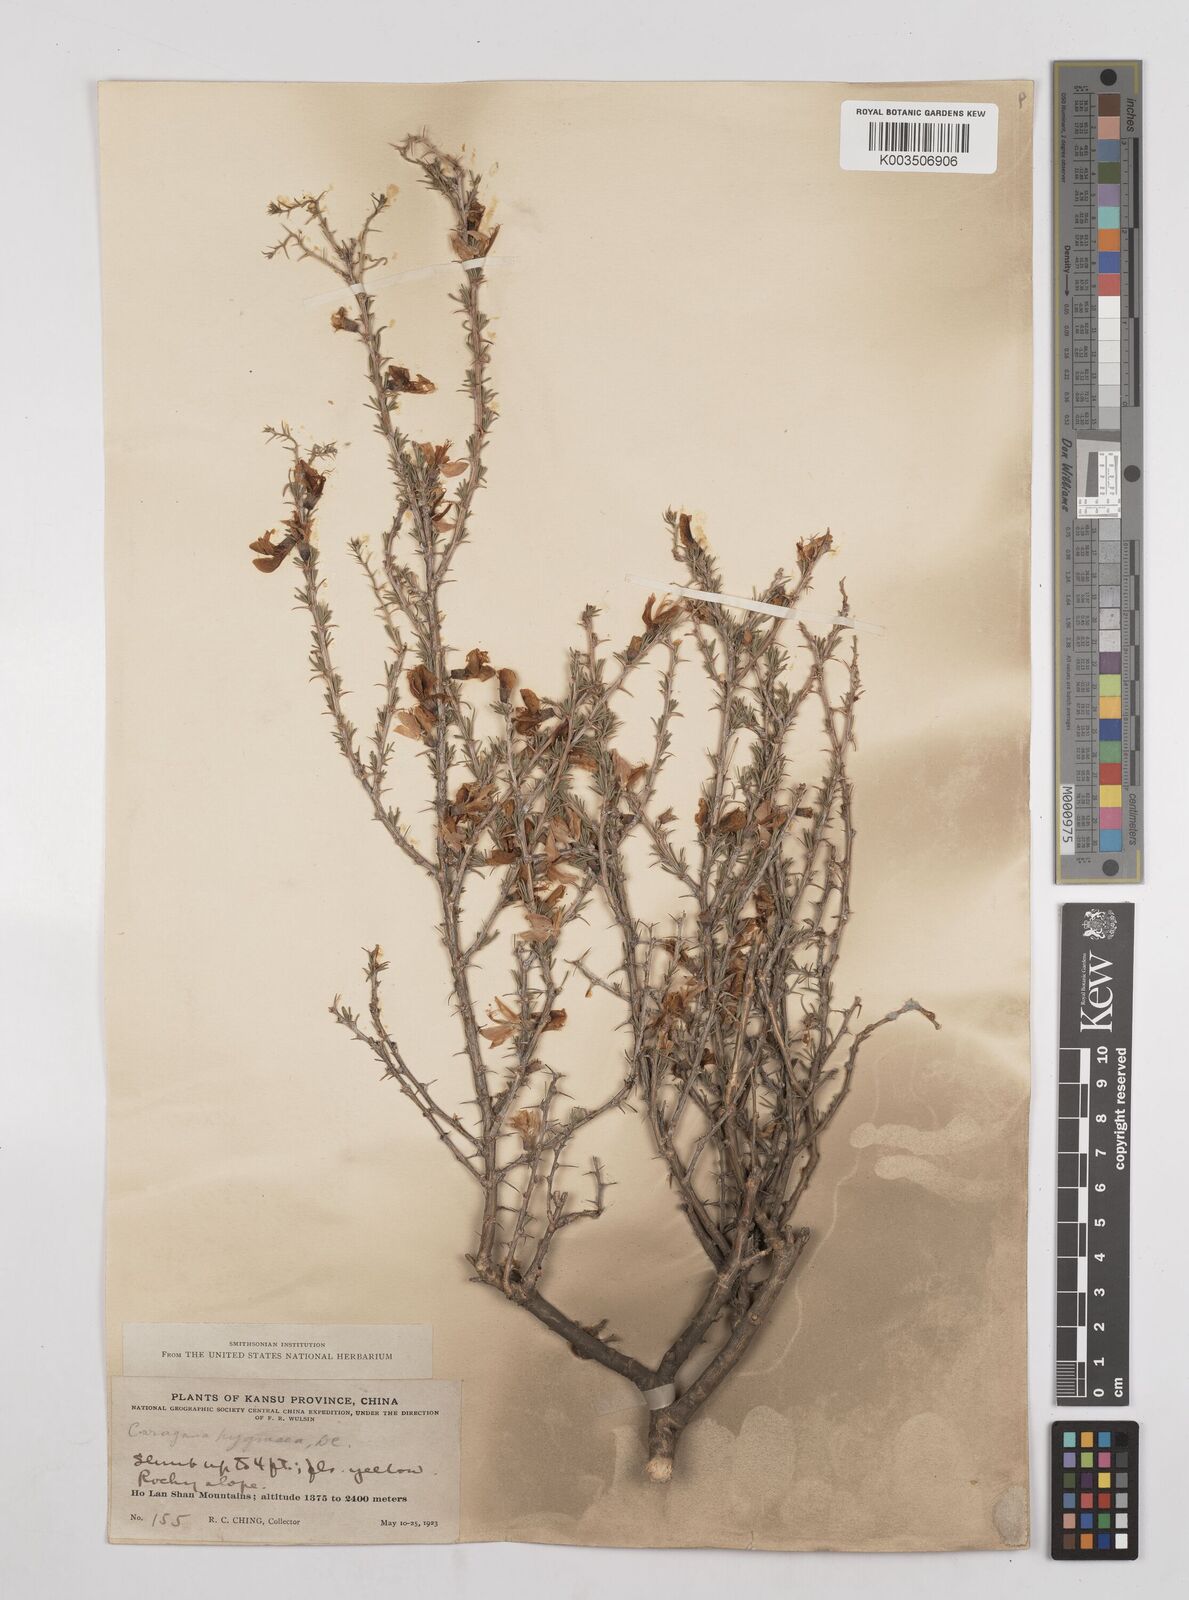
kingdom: Plantae
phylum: Tracheophyta
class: Magnoliopsida
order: Fabales
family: Fabaceae
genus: Caragana
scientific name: Caragana pygmaea
